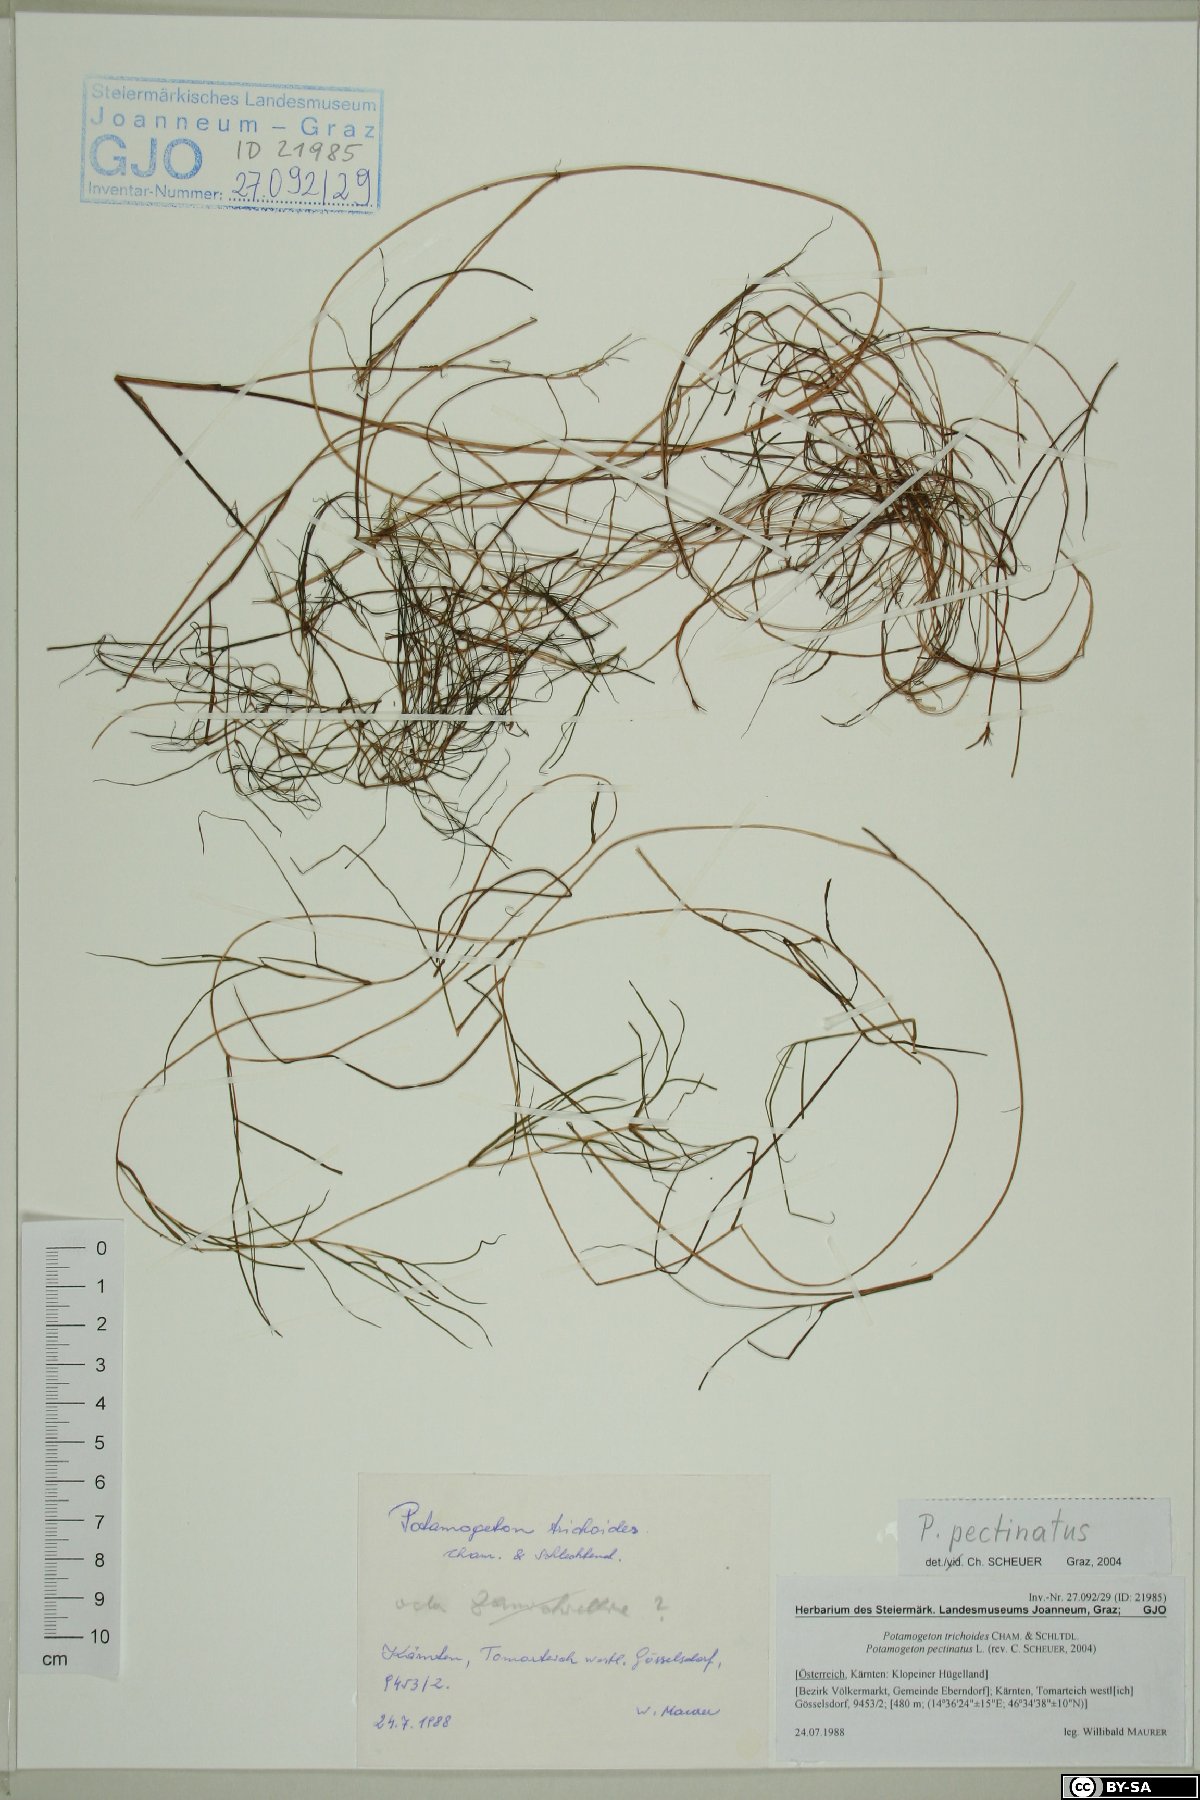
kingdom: Plantae
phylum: Tracheophyta
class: Liliopsida
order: Alismatales
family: Potamogetonaceae
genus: Stuckenia
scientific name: Stuckenia pectinata
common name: Sago pondweed
